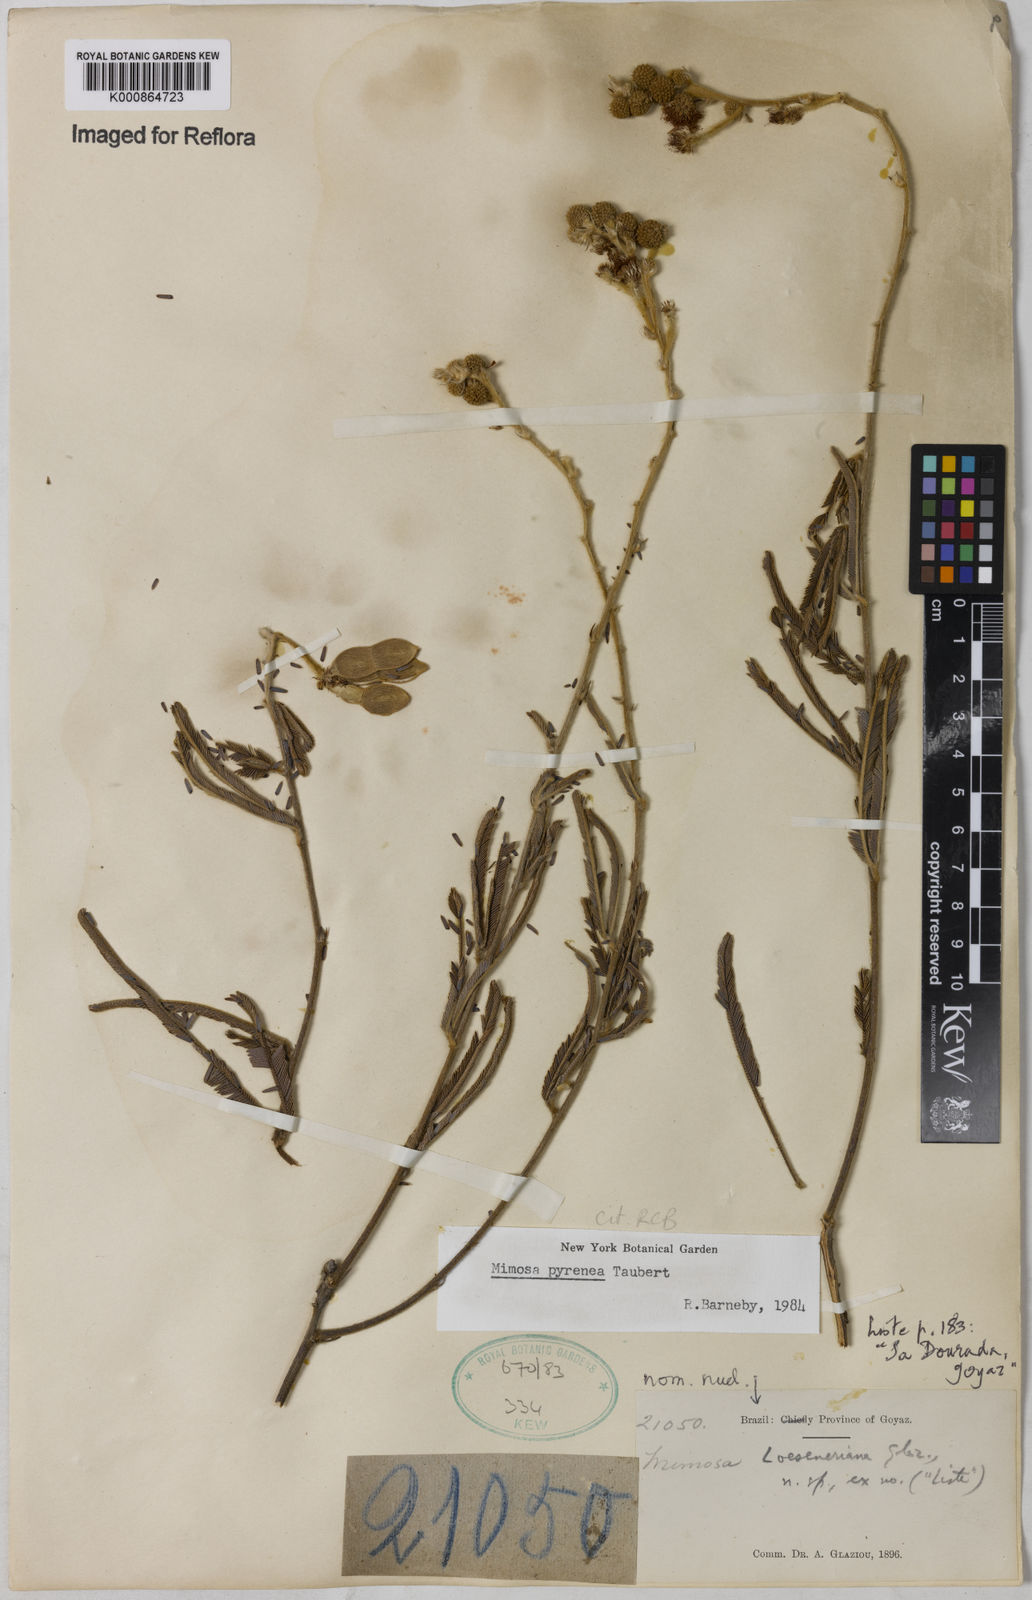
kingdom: Plantae
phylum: Tracheophyta
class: Magnoliopsida
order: Fabales
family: Fabaceae
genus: Mimosa
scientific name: Mimosa pyrenea
